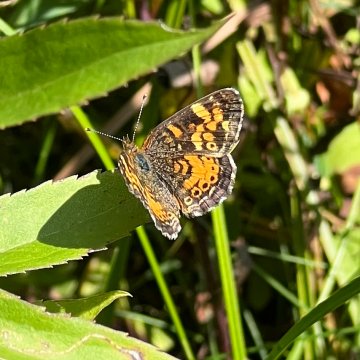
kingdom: Animalia
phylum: Arthropoda
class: Insecta
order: Lepidoptera
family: Nymphalidae
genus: Phyciodes
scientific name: Phyciodes
